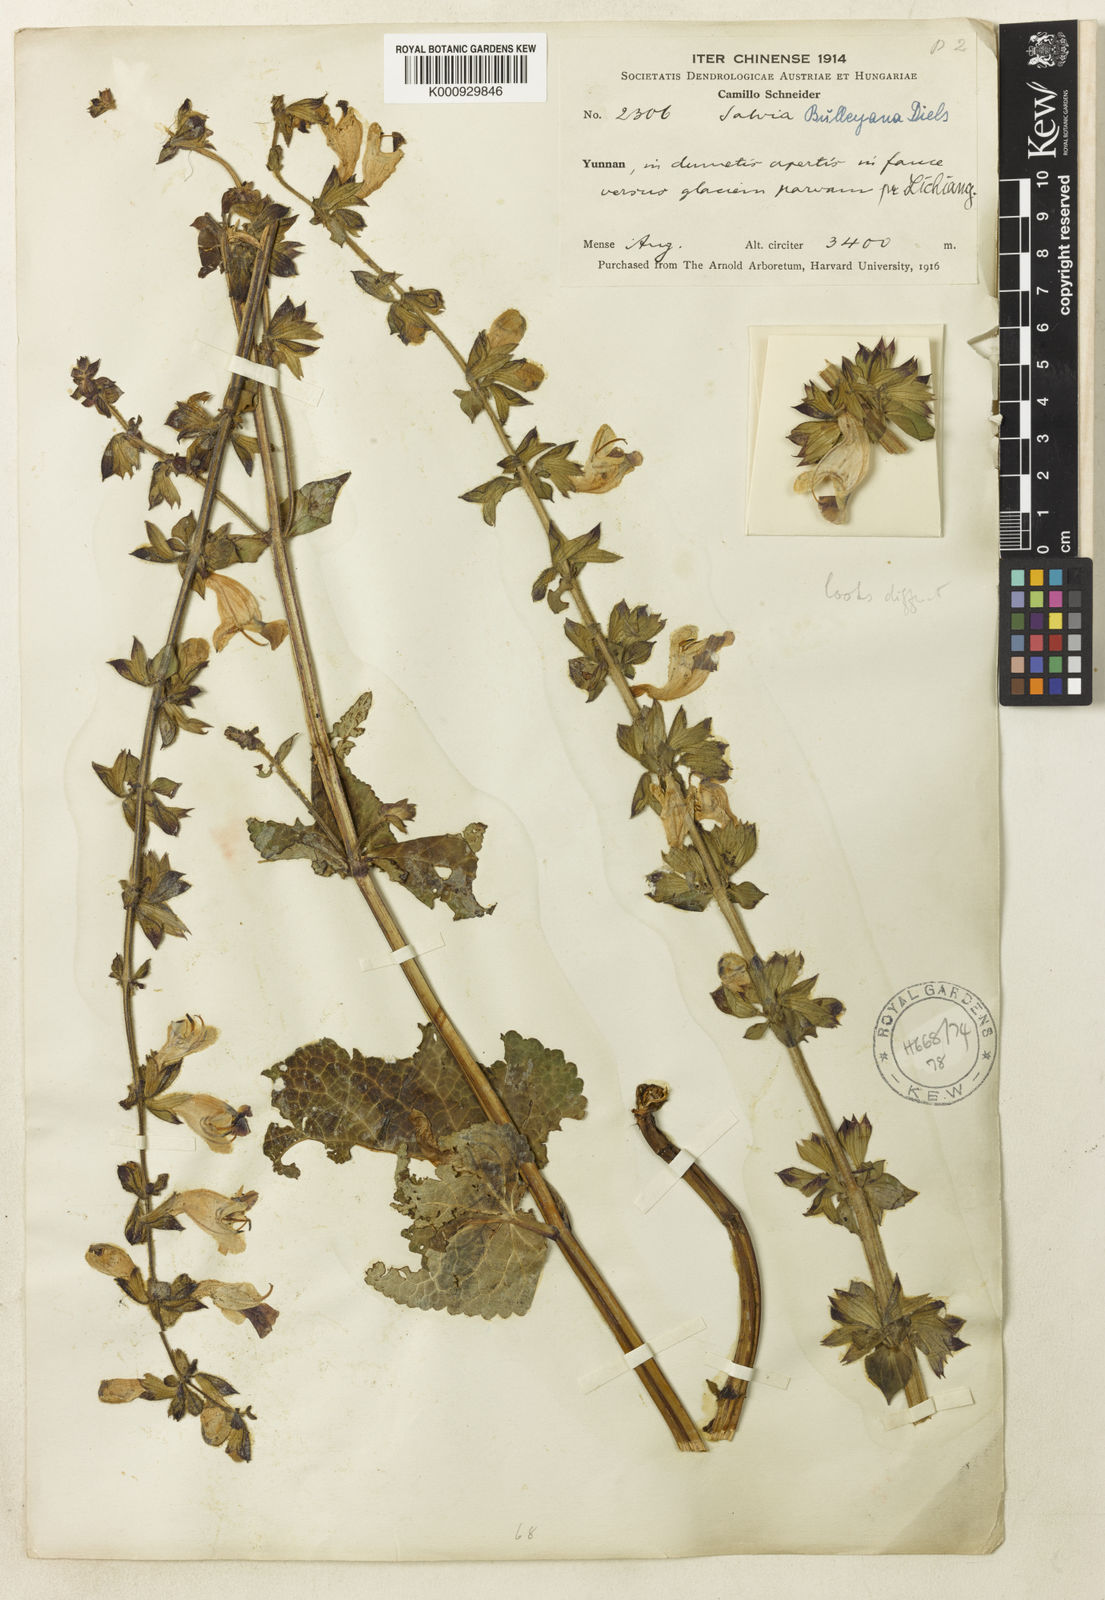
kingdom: Plantae
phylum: Tracheophyta
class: Magnoliopsida
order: Lamiales
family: Lamiaceae
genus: Salvia
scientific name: Salvia flava
